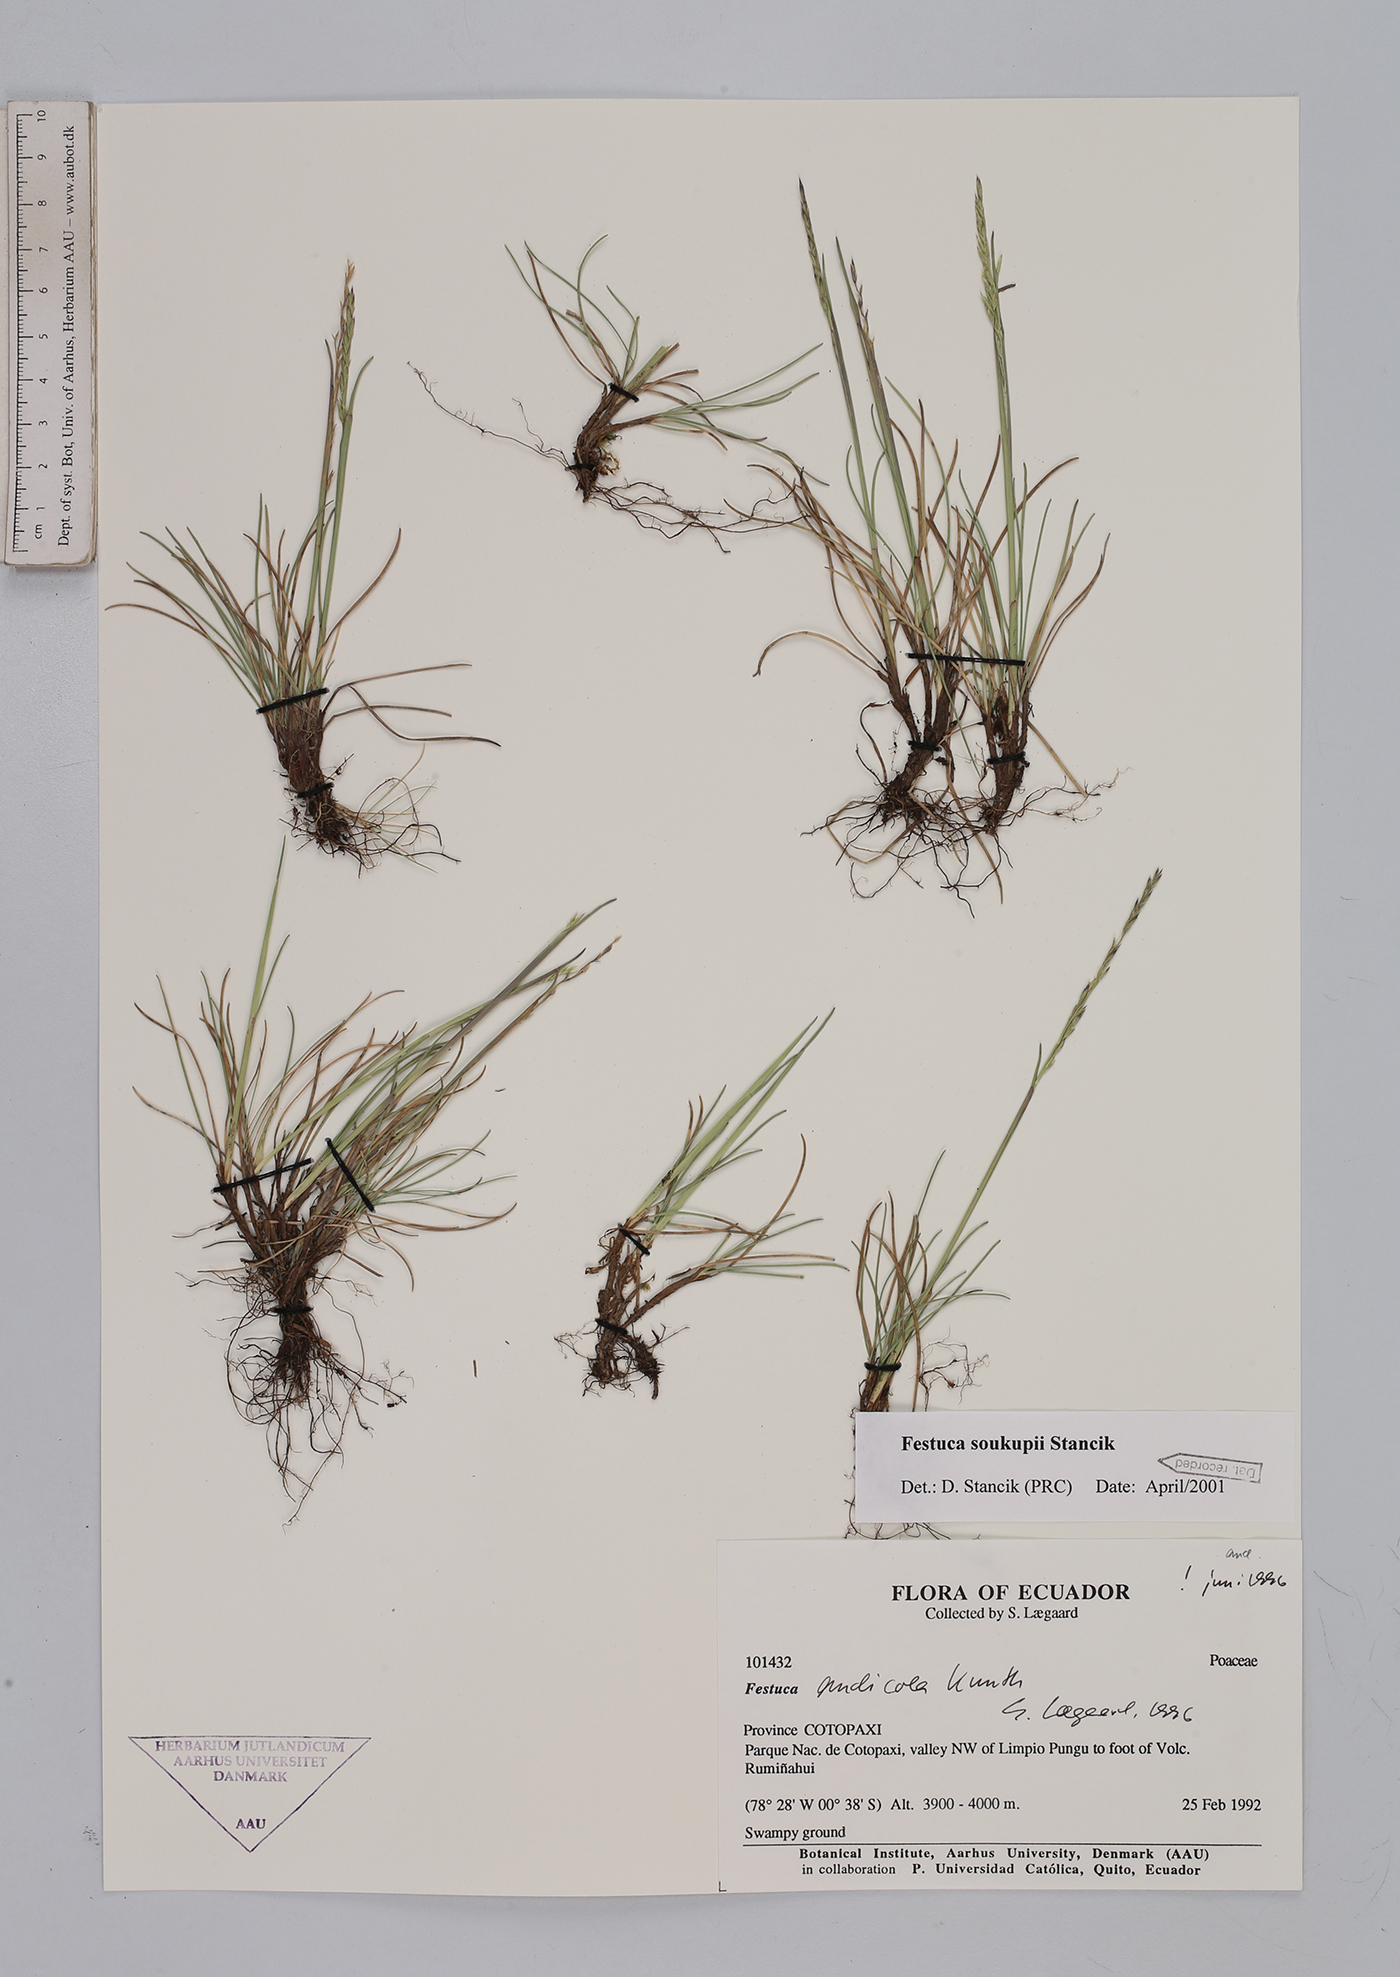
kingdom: Plantae
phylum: Tracheophyta
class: Liliopsida
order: Poales
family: Poaceae
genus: Festuca
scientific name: Festuca soukupii
